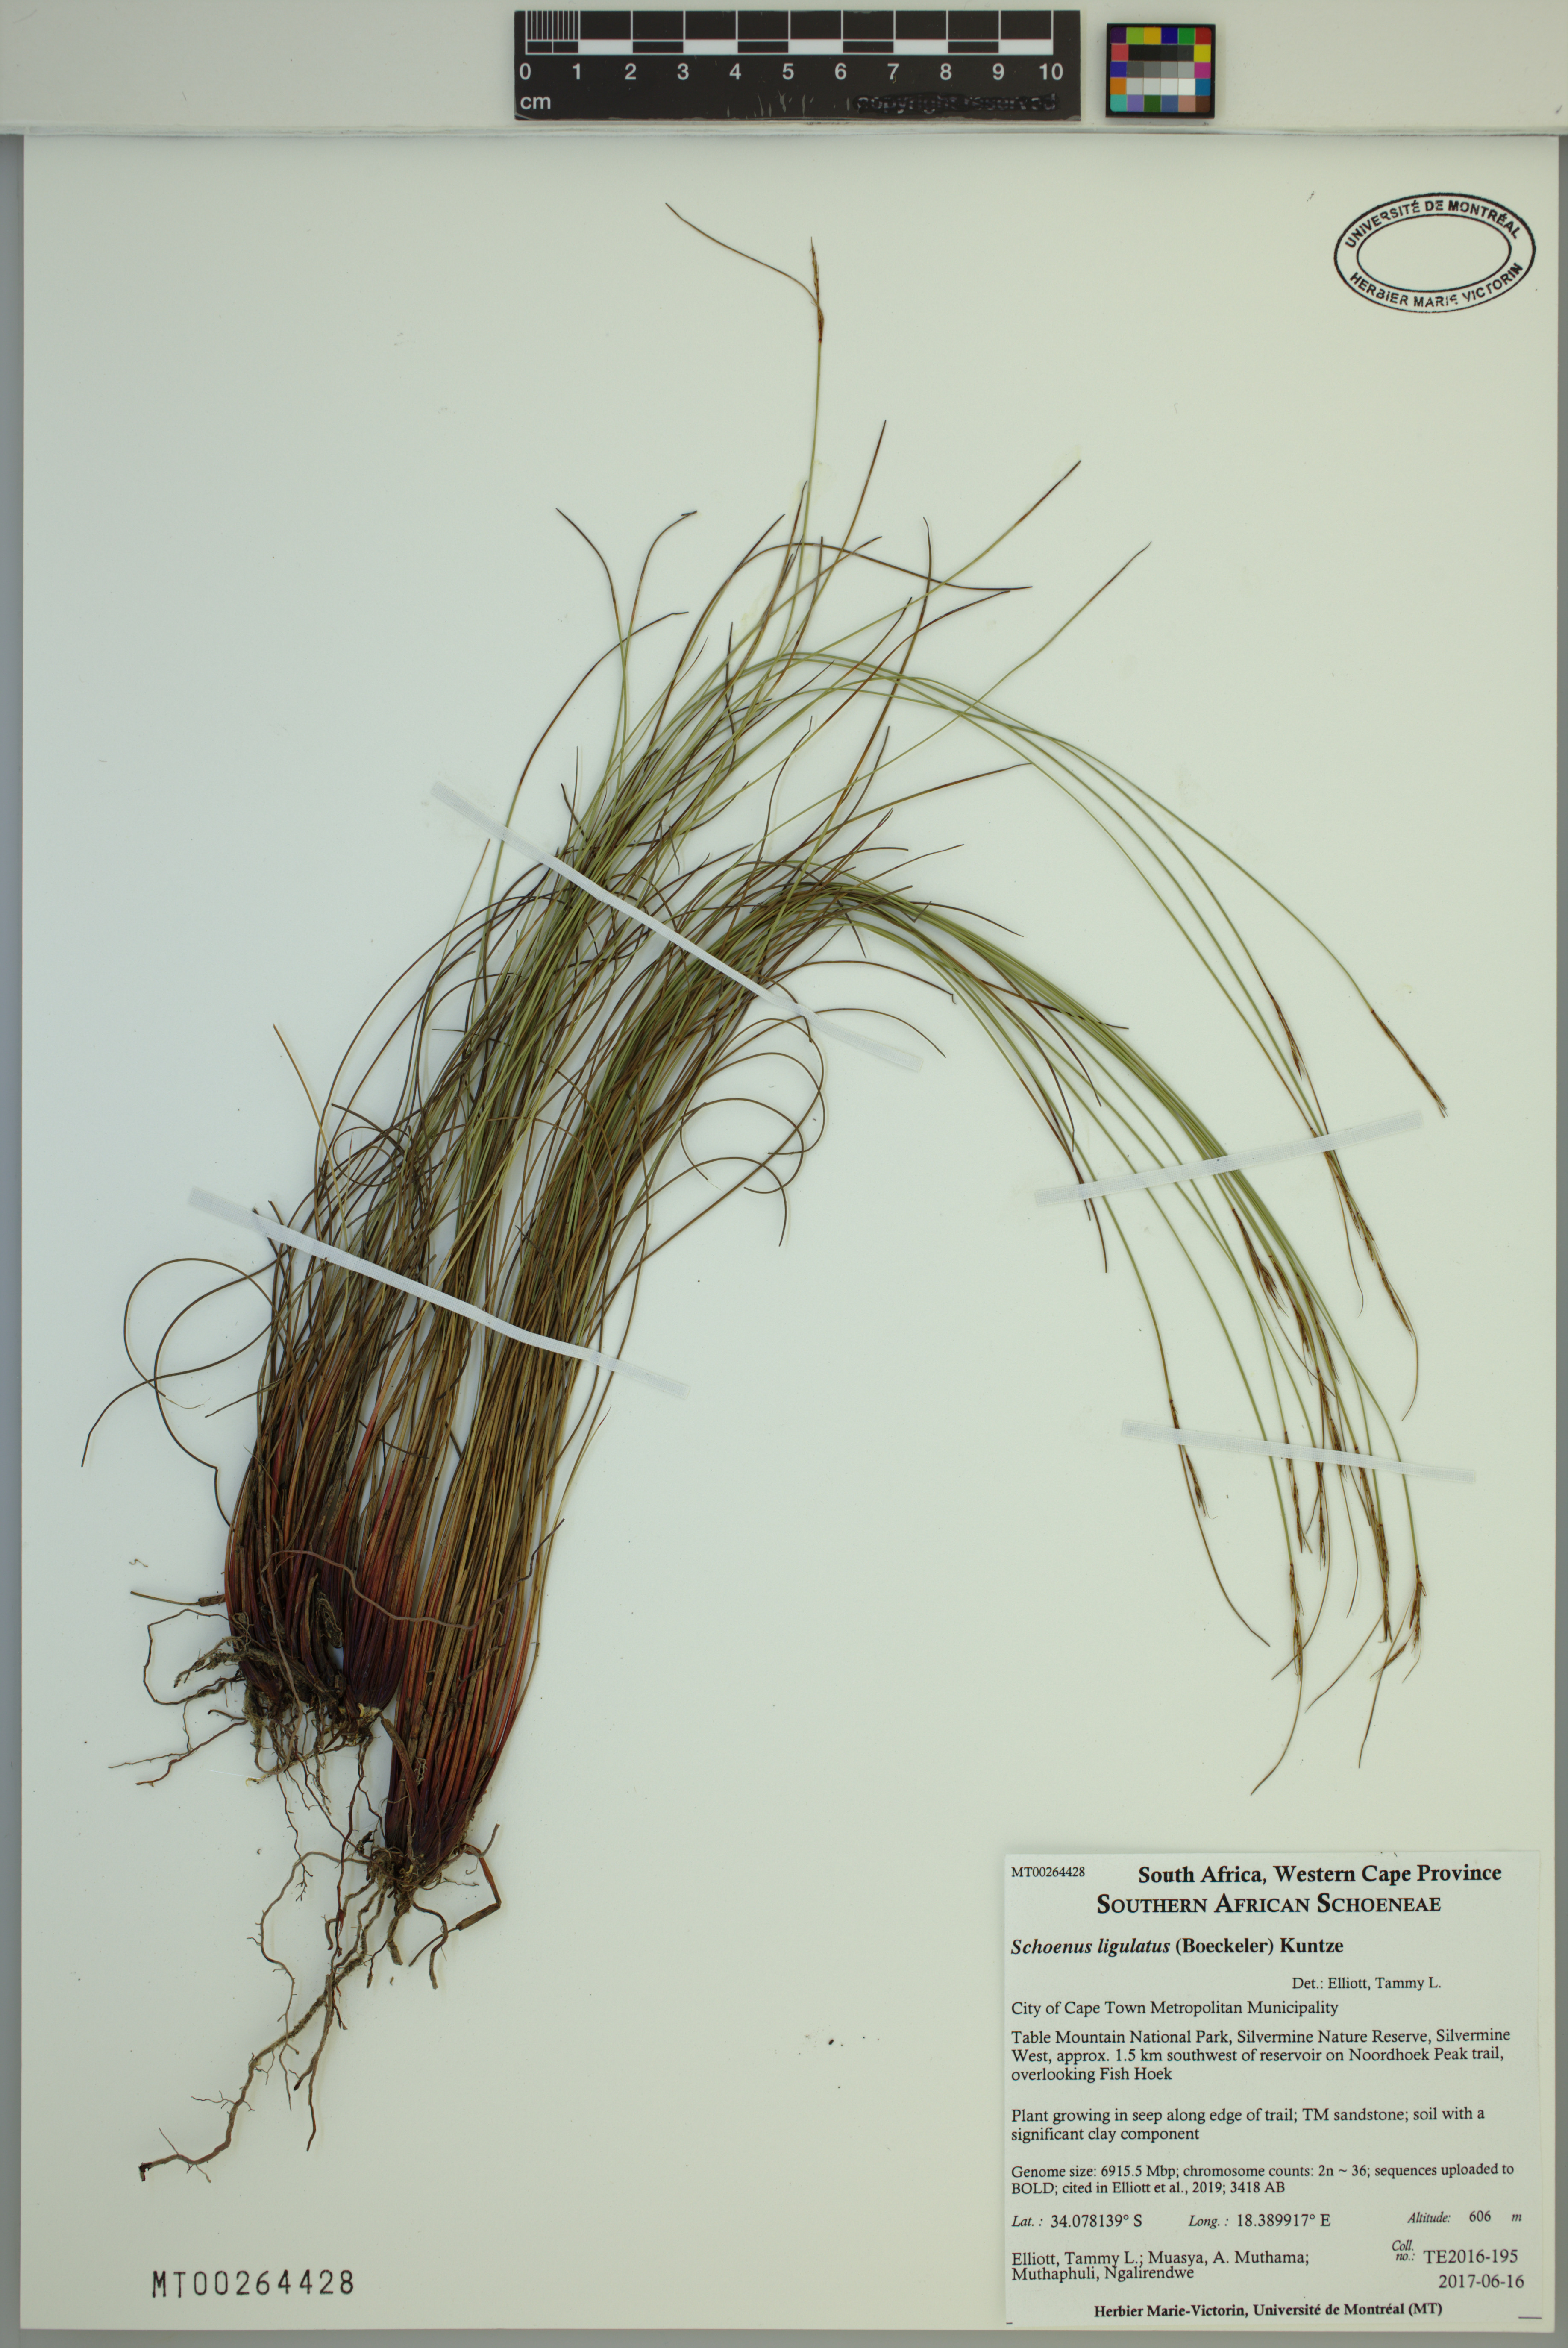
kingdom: Plantae
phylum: Tracheophyta
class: Liliopsida
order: Poales
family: Cyperaceae
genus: Schoenus
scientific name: Schoenus ligulatus
